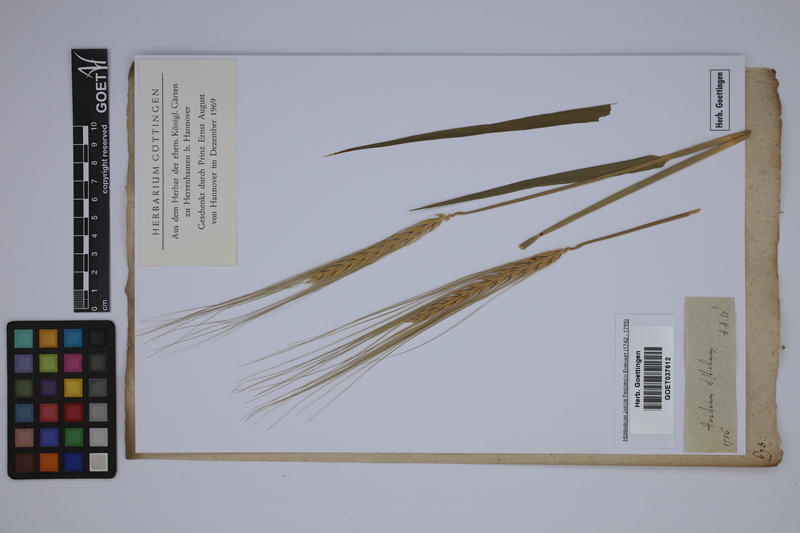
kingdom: Plantae
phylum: Tracheophyta
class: Liliopsida
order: Poales
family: Poaceae
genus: Hordeum
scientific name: Hordeum vulgare
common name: Common barley
